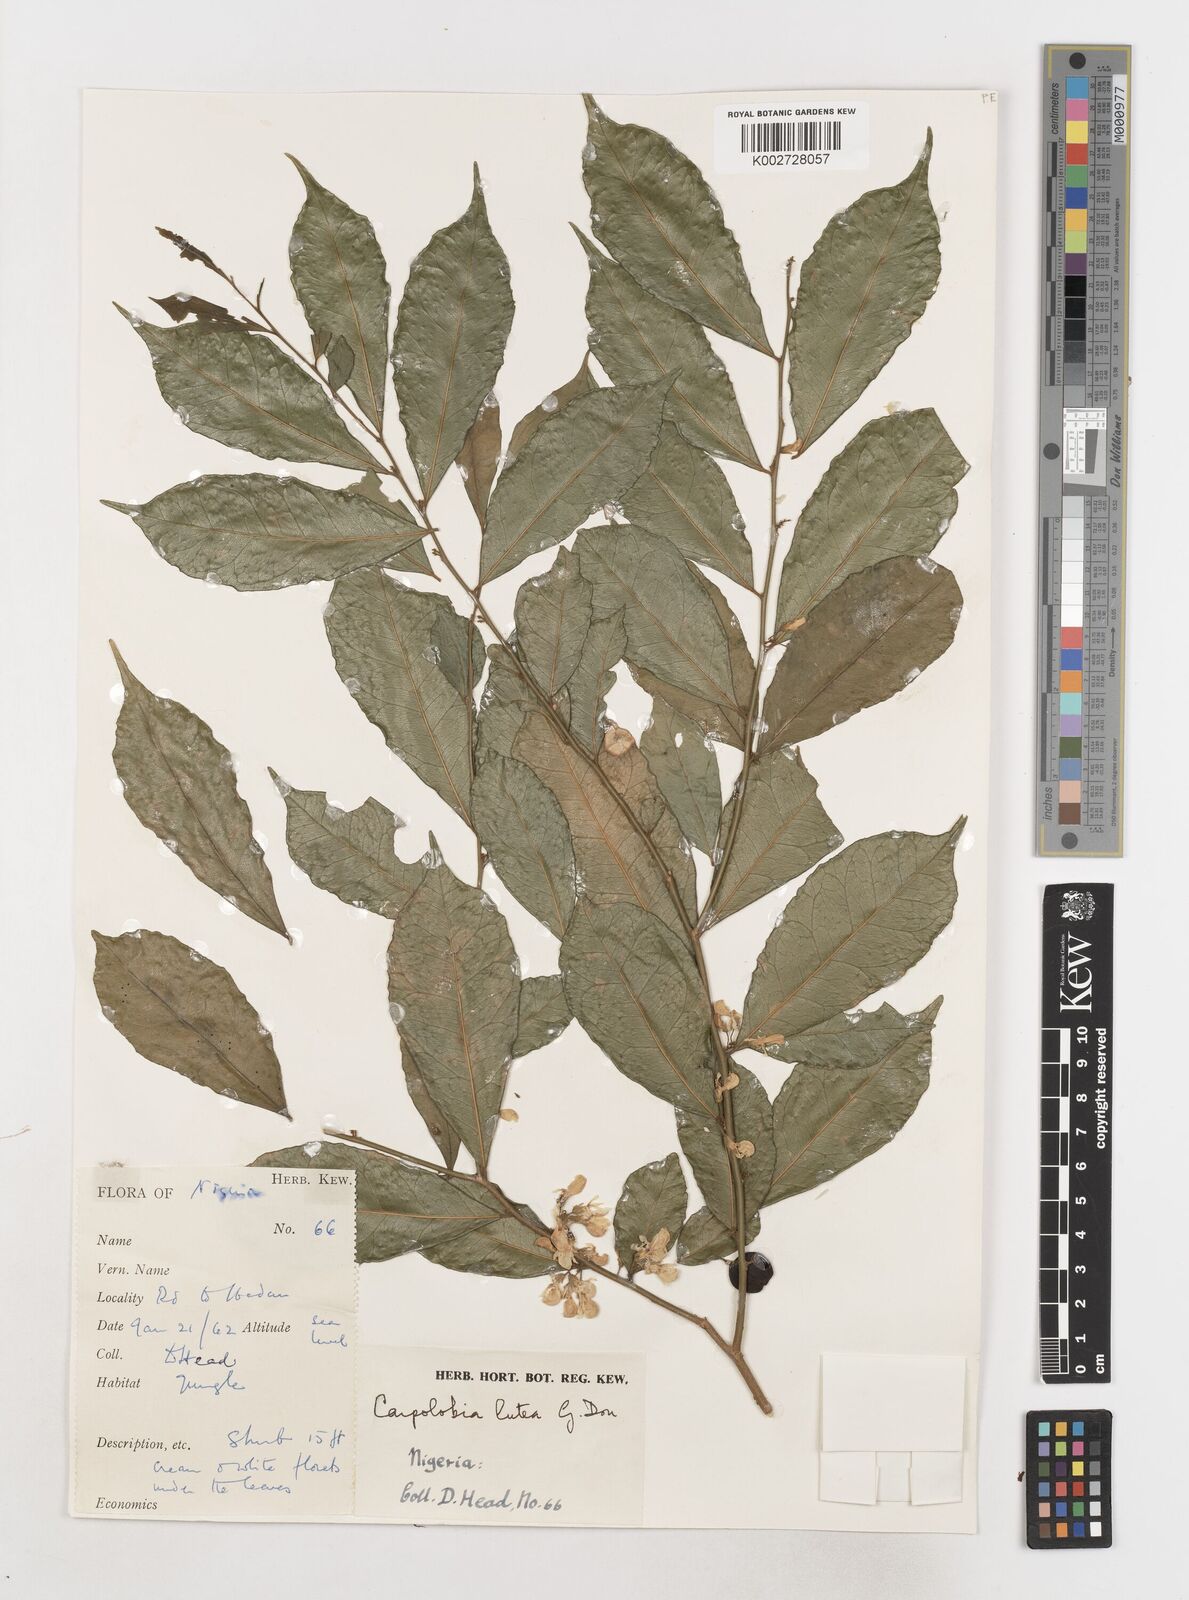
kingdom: Plantae
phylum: Tracheophyta
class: Magnoliopsida
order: Fabales
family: Polygalaceae
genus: Carpolobia
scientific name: Carpolobia lutea
